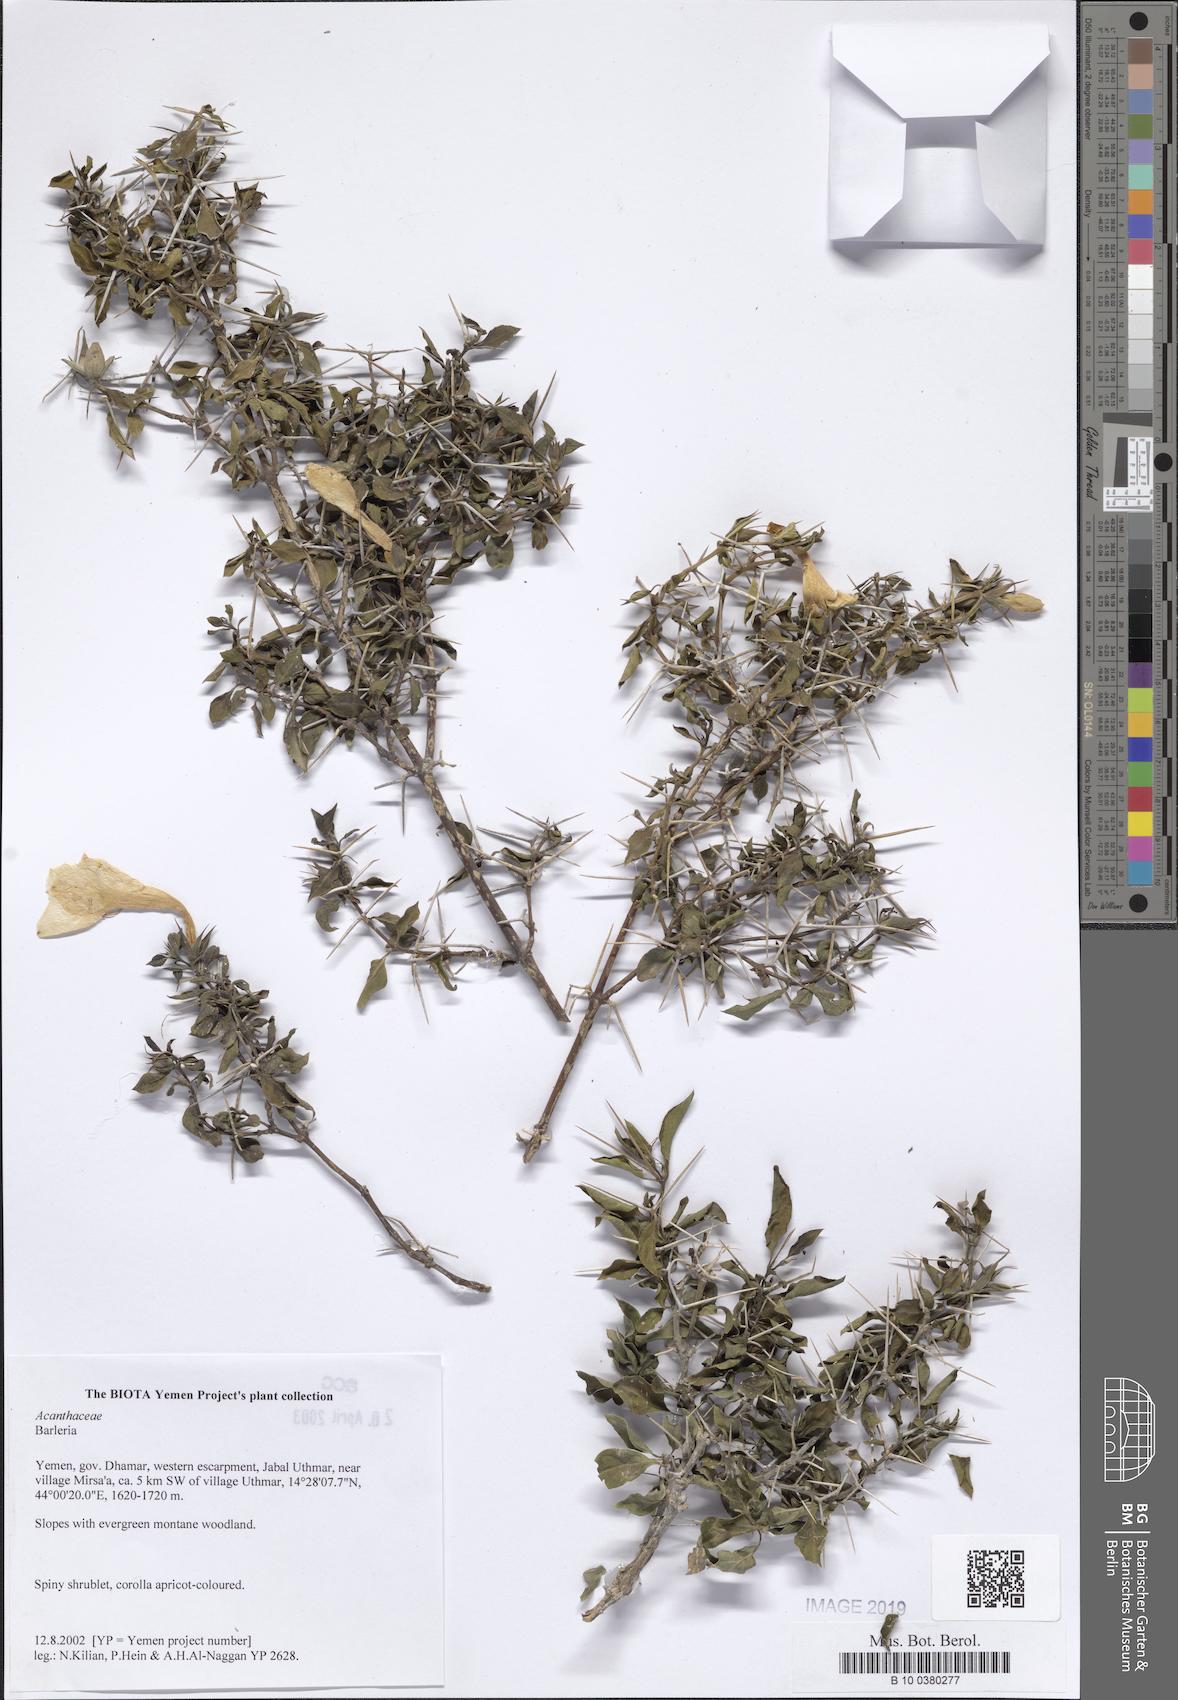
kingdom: Plantae
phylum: Tracheophyta
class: Magnoliopsida
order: Lamiales
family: Acanthaceae
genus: Barleria
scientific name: Barleria
